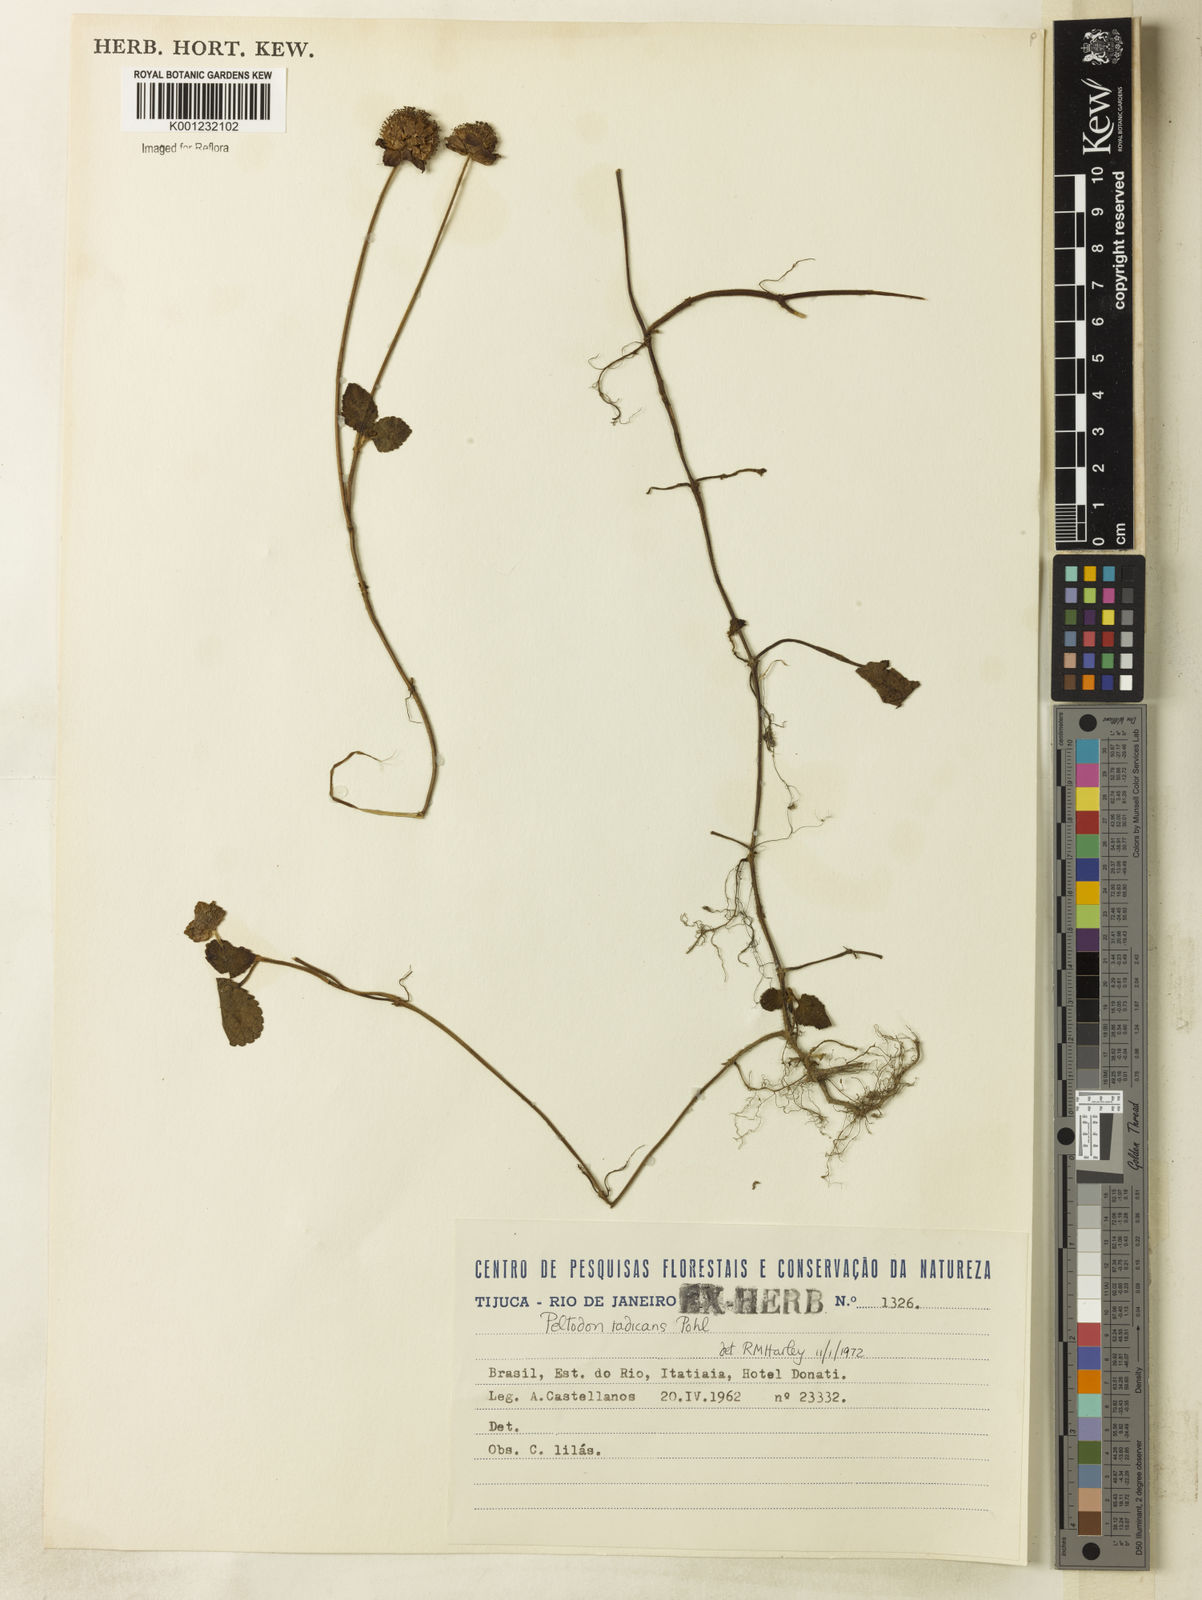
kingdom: Plantae
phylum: Tracheophyta
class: Magnoliopsida
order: Lamiales
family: Lamiaceae
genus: Hyptis
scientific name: Hyptis radicans
